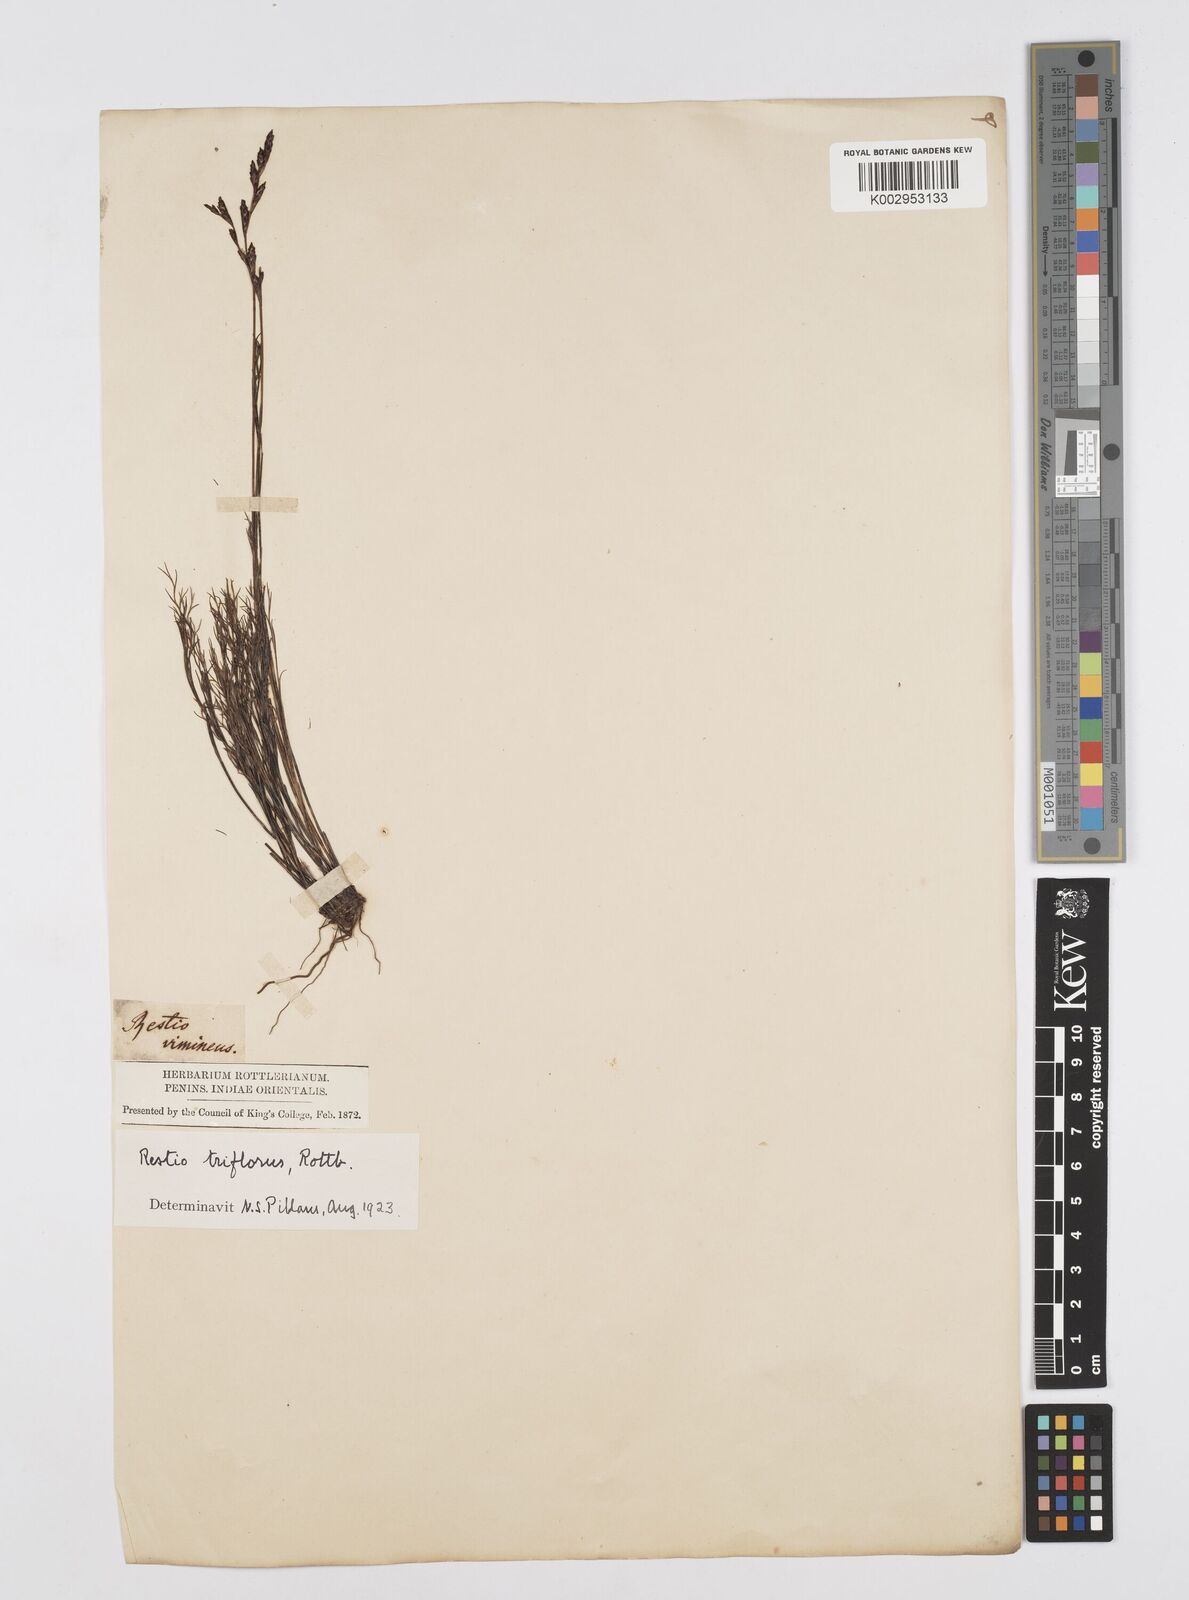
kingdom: Plantae
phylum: Tracheophyta
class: Liliopsida
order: Poales
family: Restionaceae
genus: Restio
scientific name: Restio triflorus
